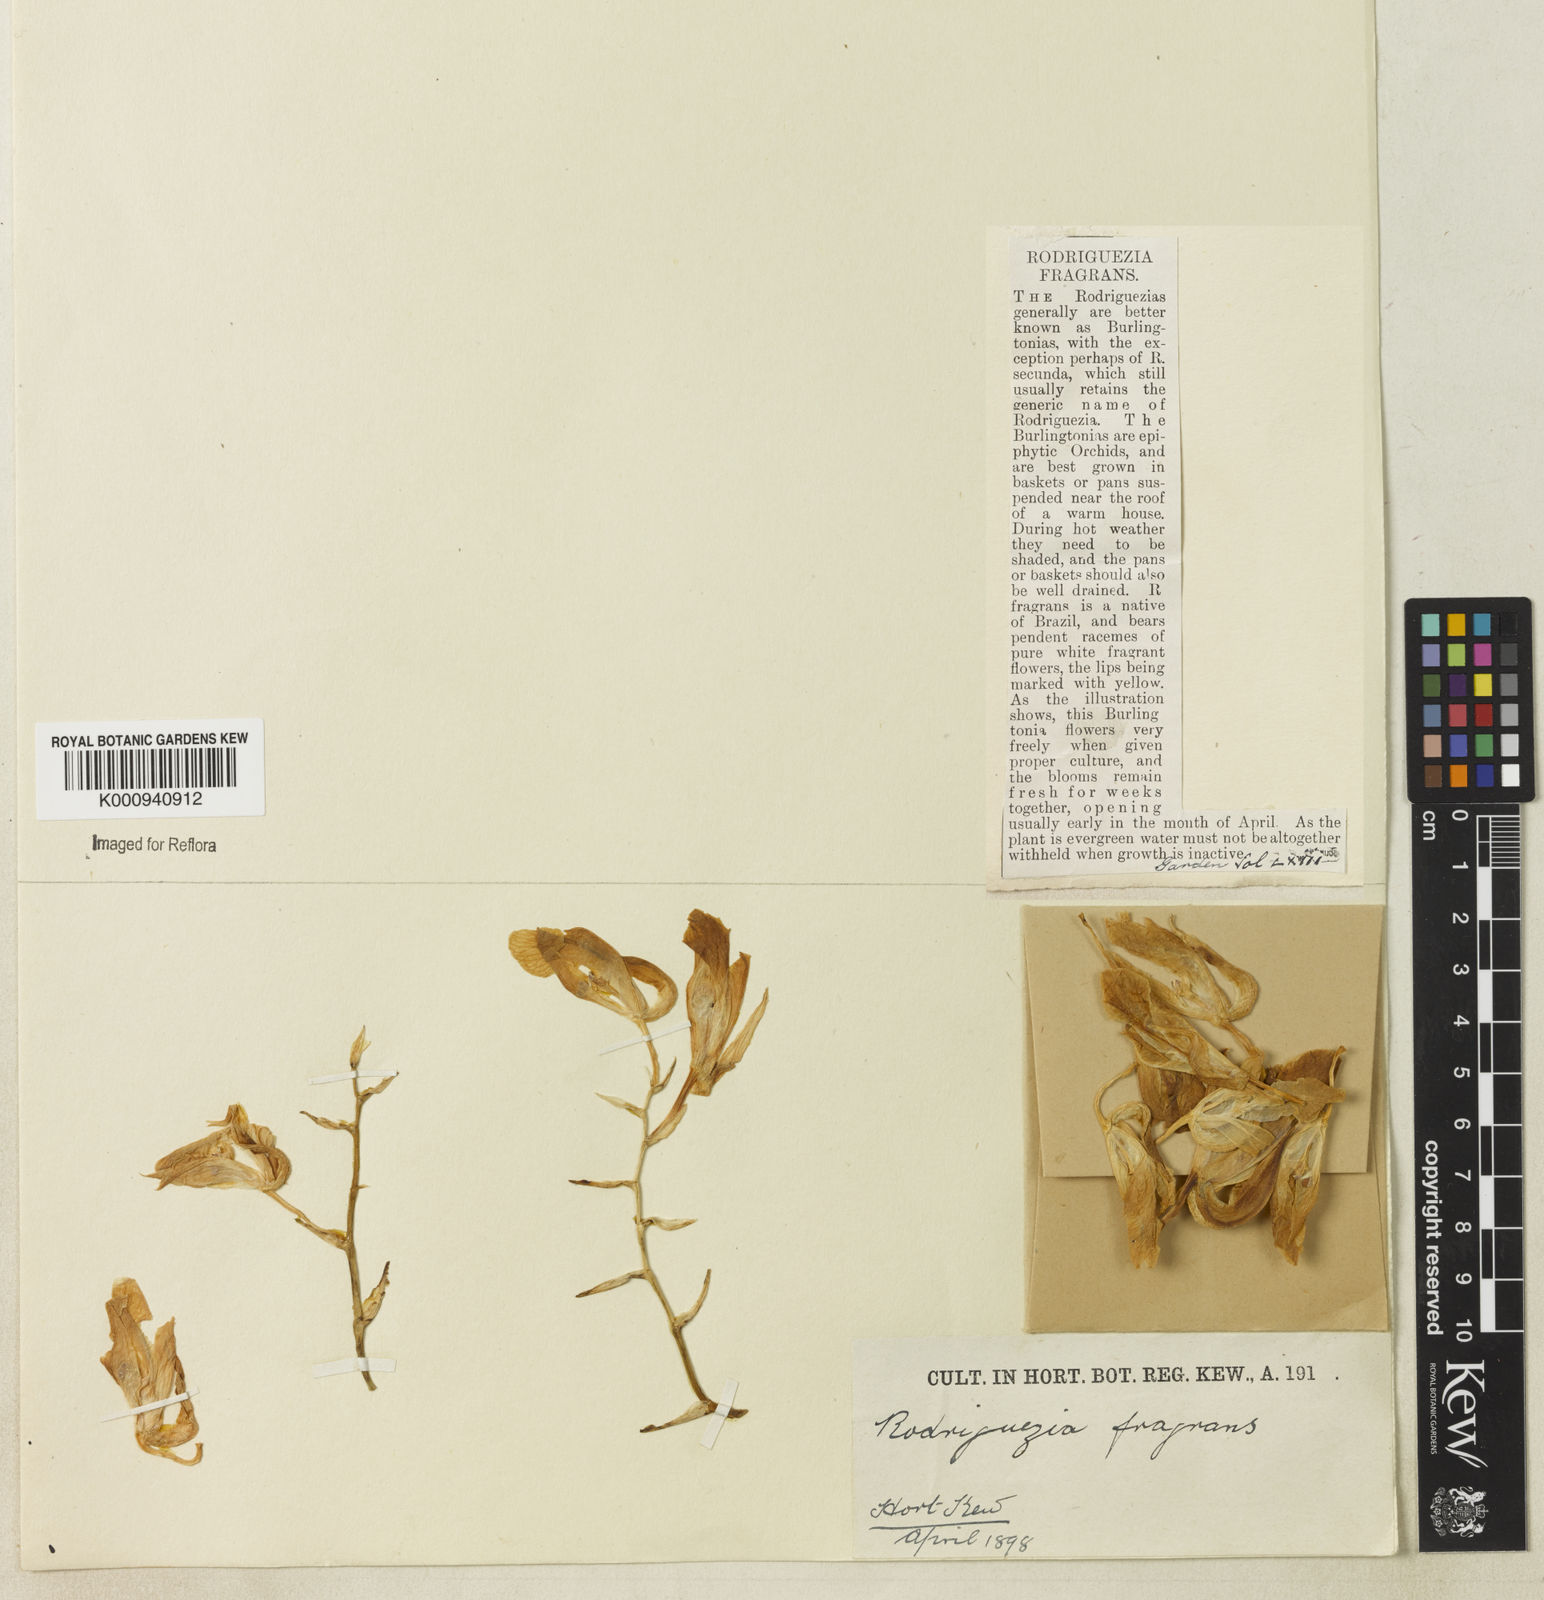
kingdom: Plantae
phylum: Tracheophyta
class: Liliopsida
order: Asparagales
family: Orchidaceae
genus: Rodriguezia
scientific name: Rodriguezia bracteata
